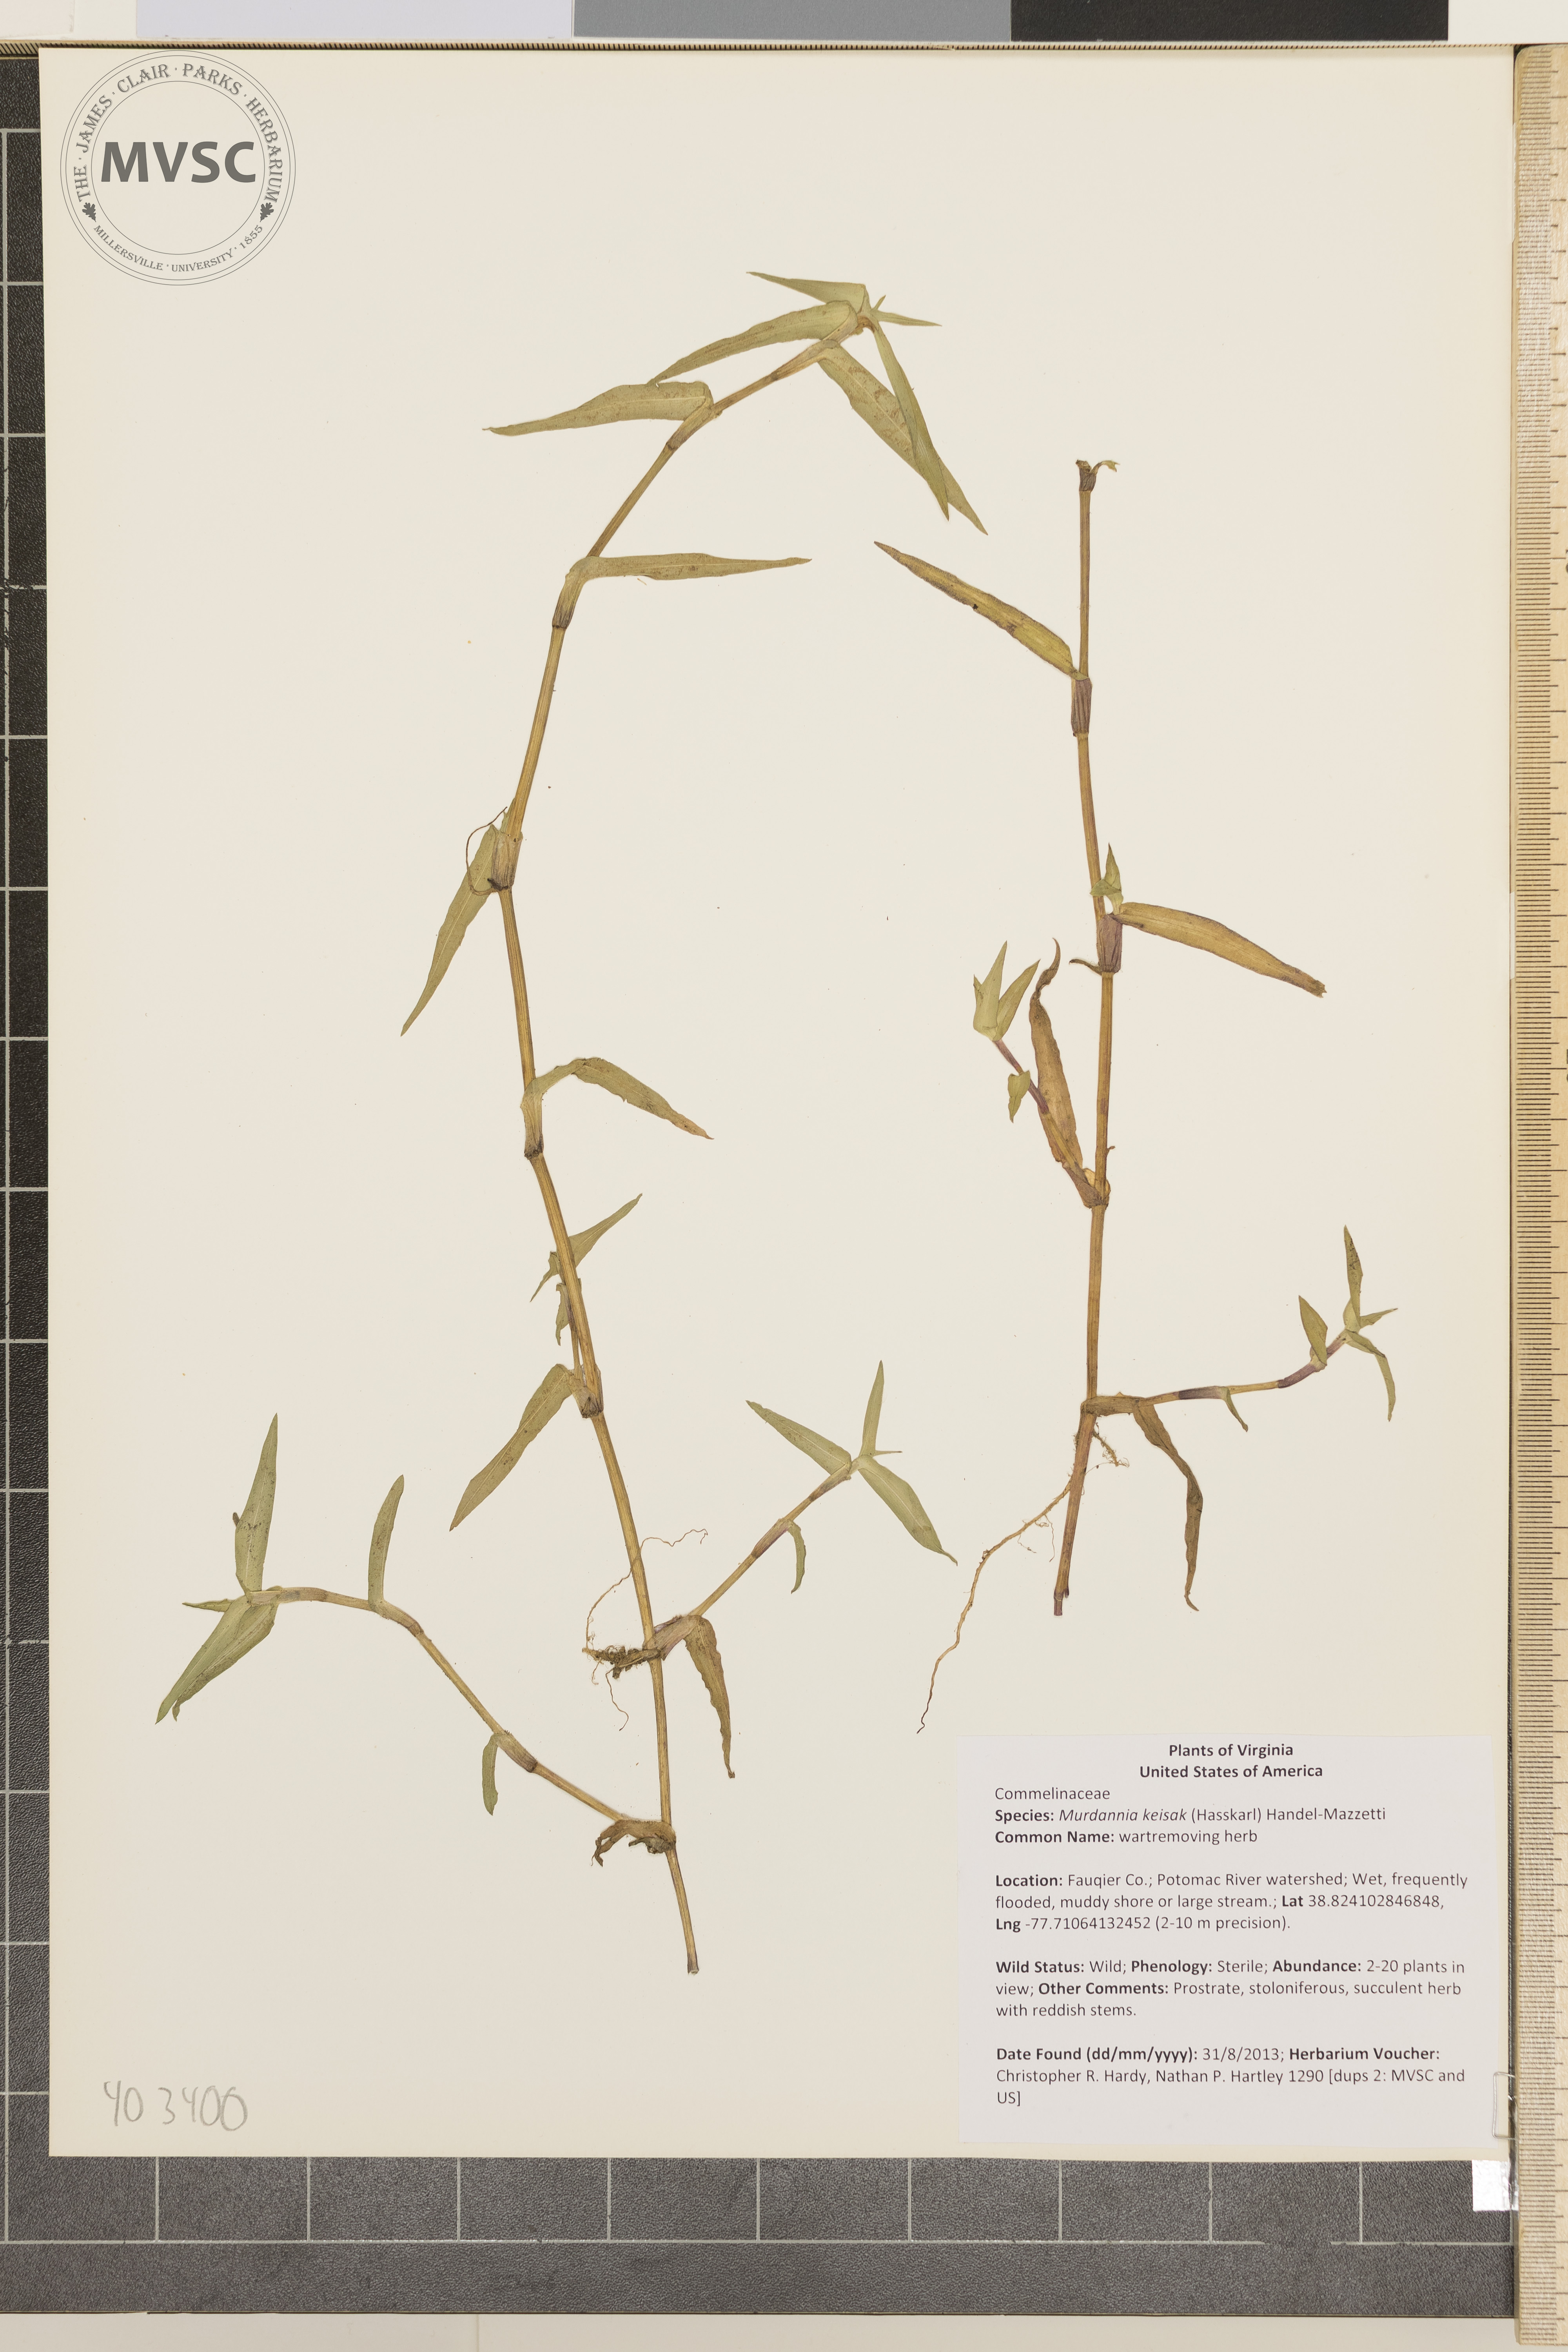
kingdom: Plantae
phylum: Tracheophyta
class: Liliopsida
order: Commelinales
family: Commelinaceae
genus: Murdannia
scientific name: Murdannia keisak
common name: wartremoving herb
